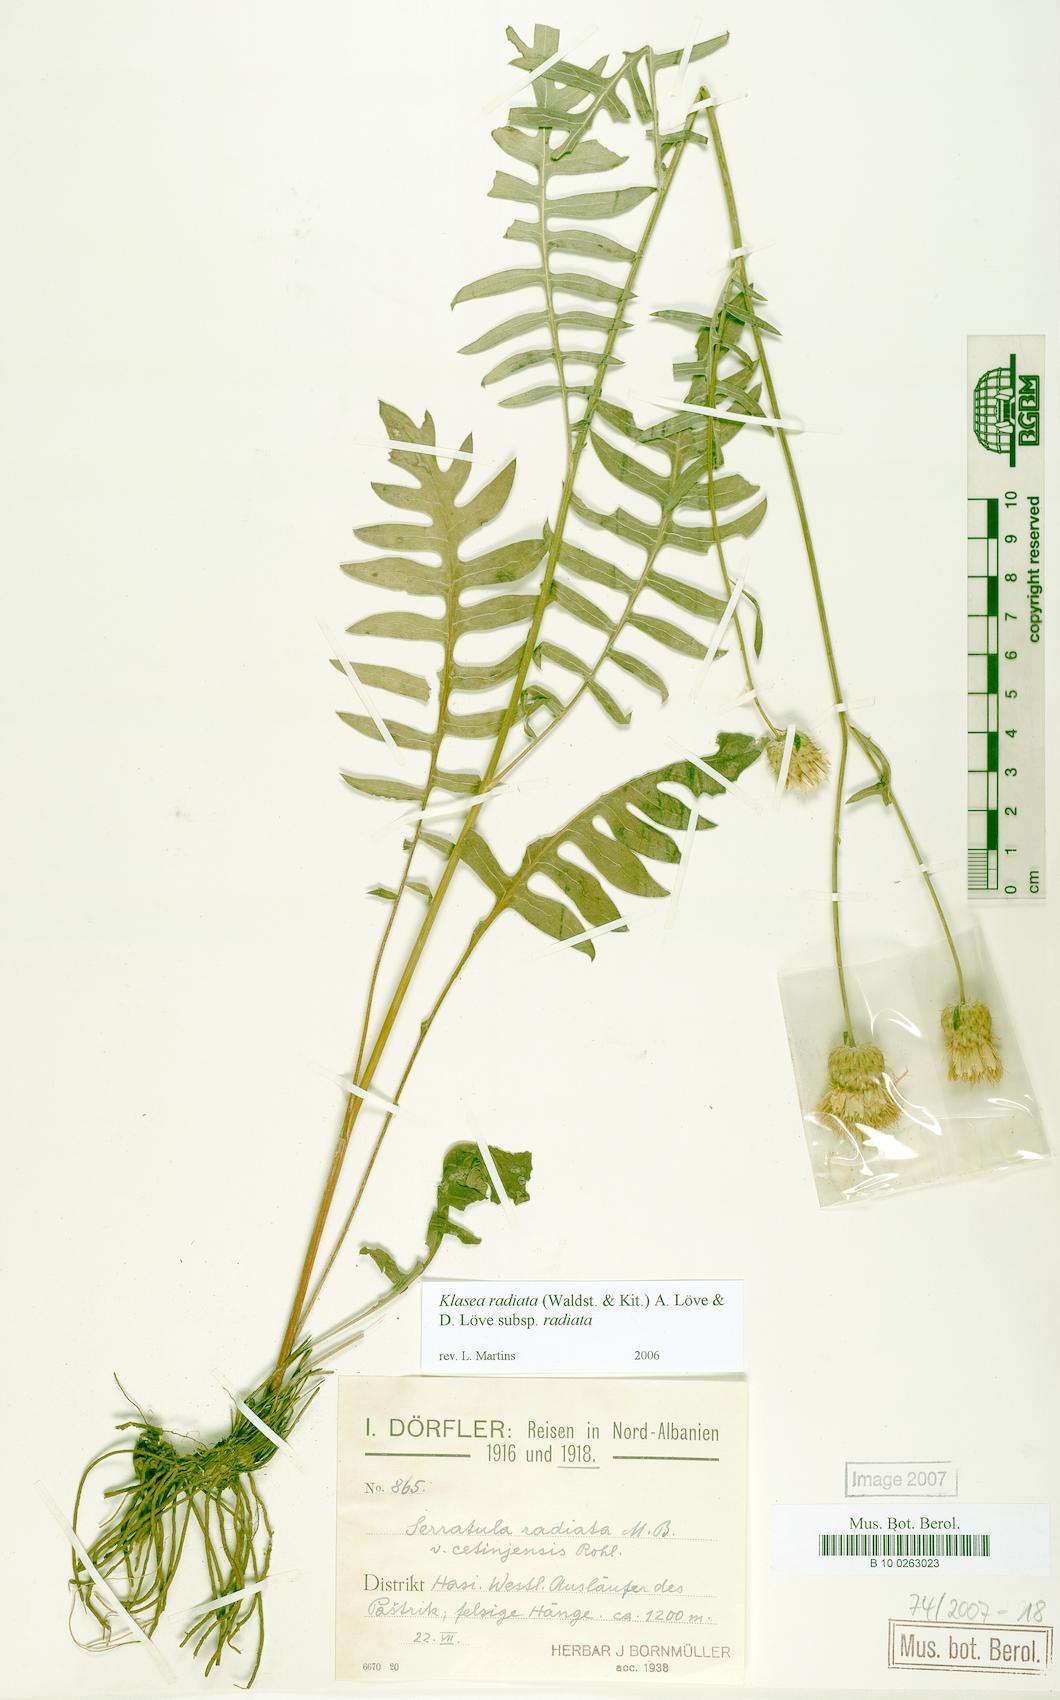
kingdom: Plantae
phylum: Tracheophyta
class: Magnoliopsida
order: Asterales
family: Asteraceae
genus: Klasea
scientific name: Klasea radiata
